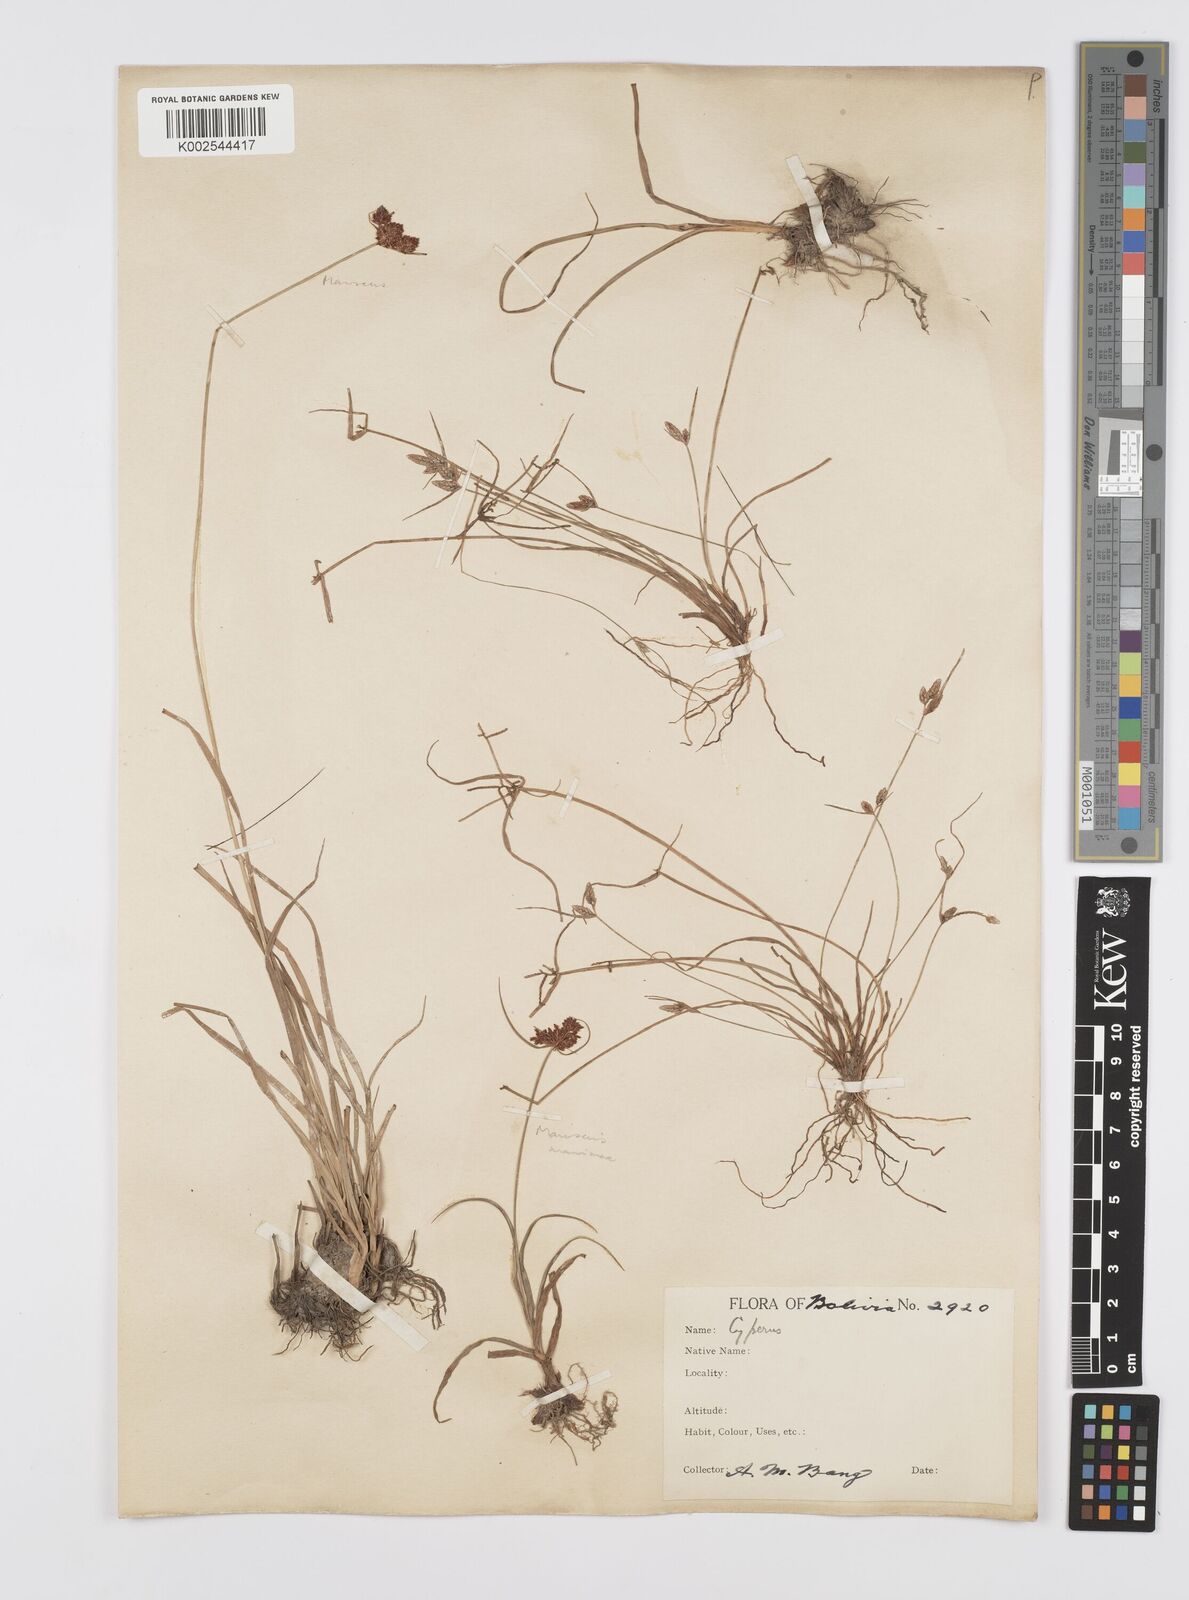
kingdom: Plantae
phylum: Tracheophyta
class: Liliopsida
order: Poales
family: Cyperaceae
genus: Cyperus
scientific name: Cyperus flavescens
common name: Yellow galingale
